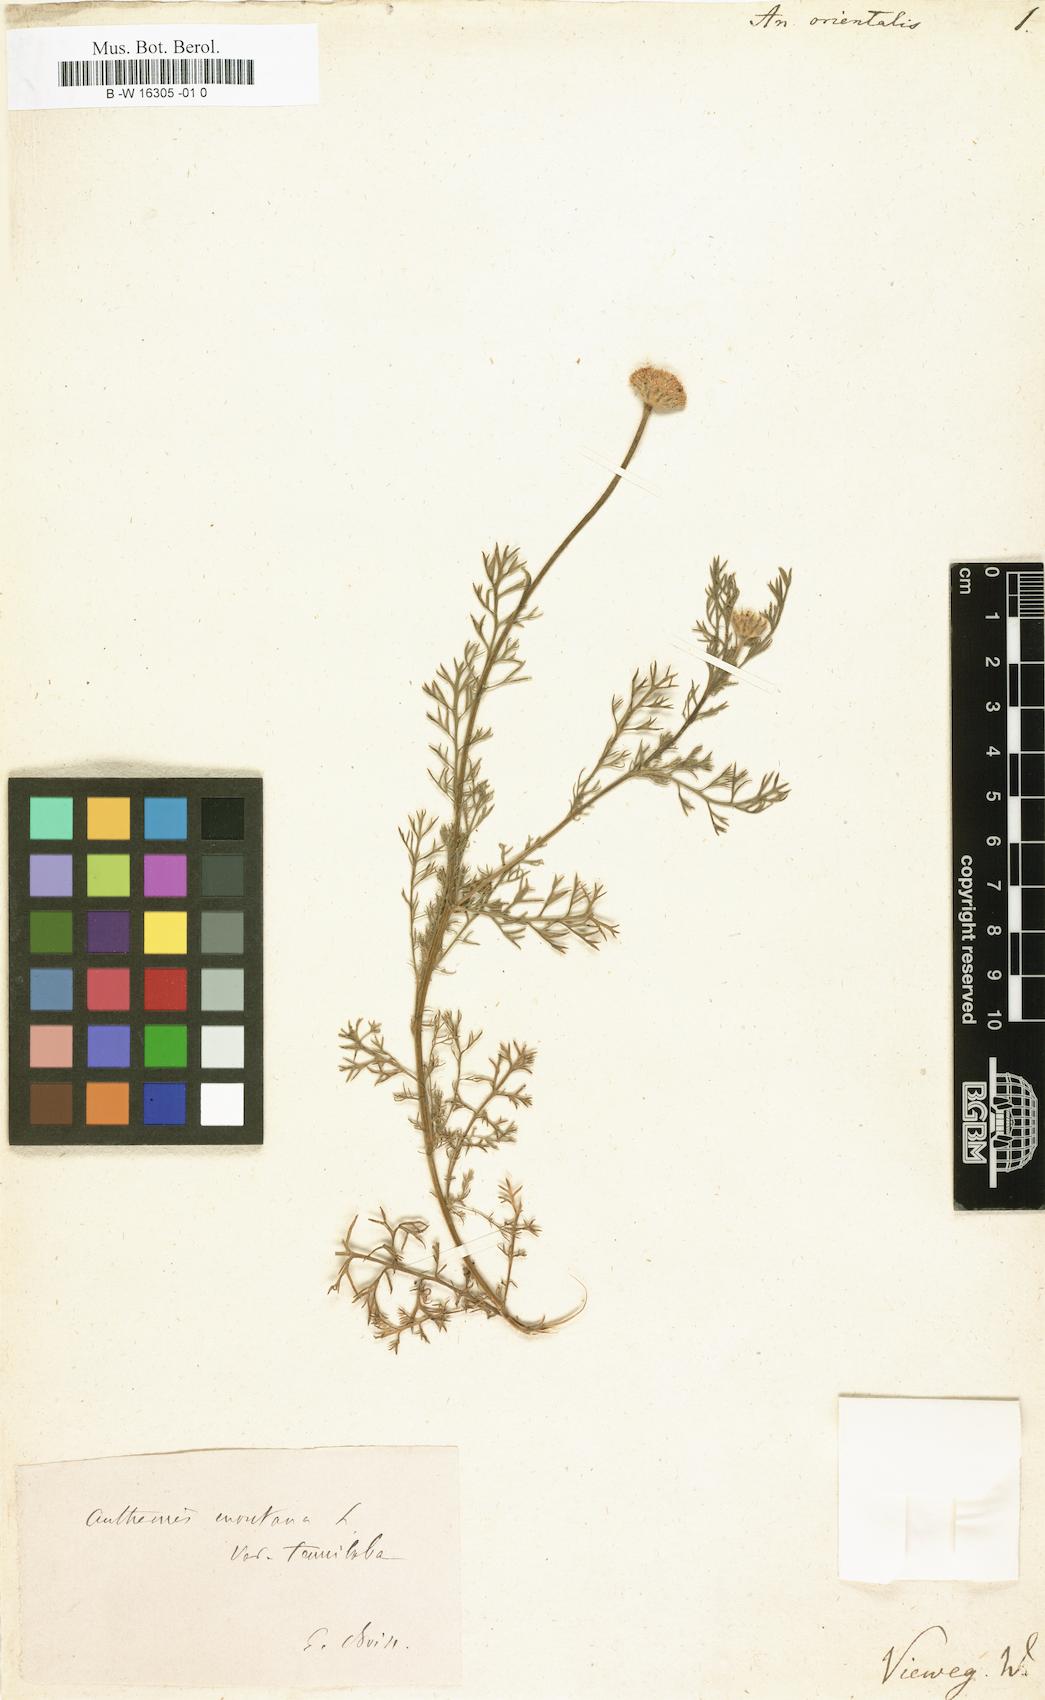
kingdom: Plantae
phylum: Tracheophyta
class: Magnoliopsida
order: Asterales
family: Asteraceae
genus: Cota
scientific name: Cota nigellifolia
